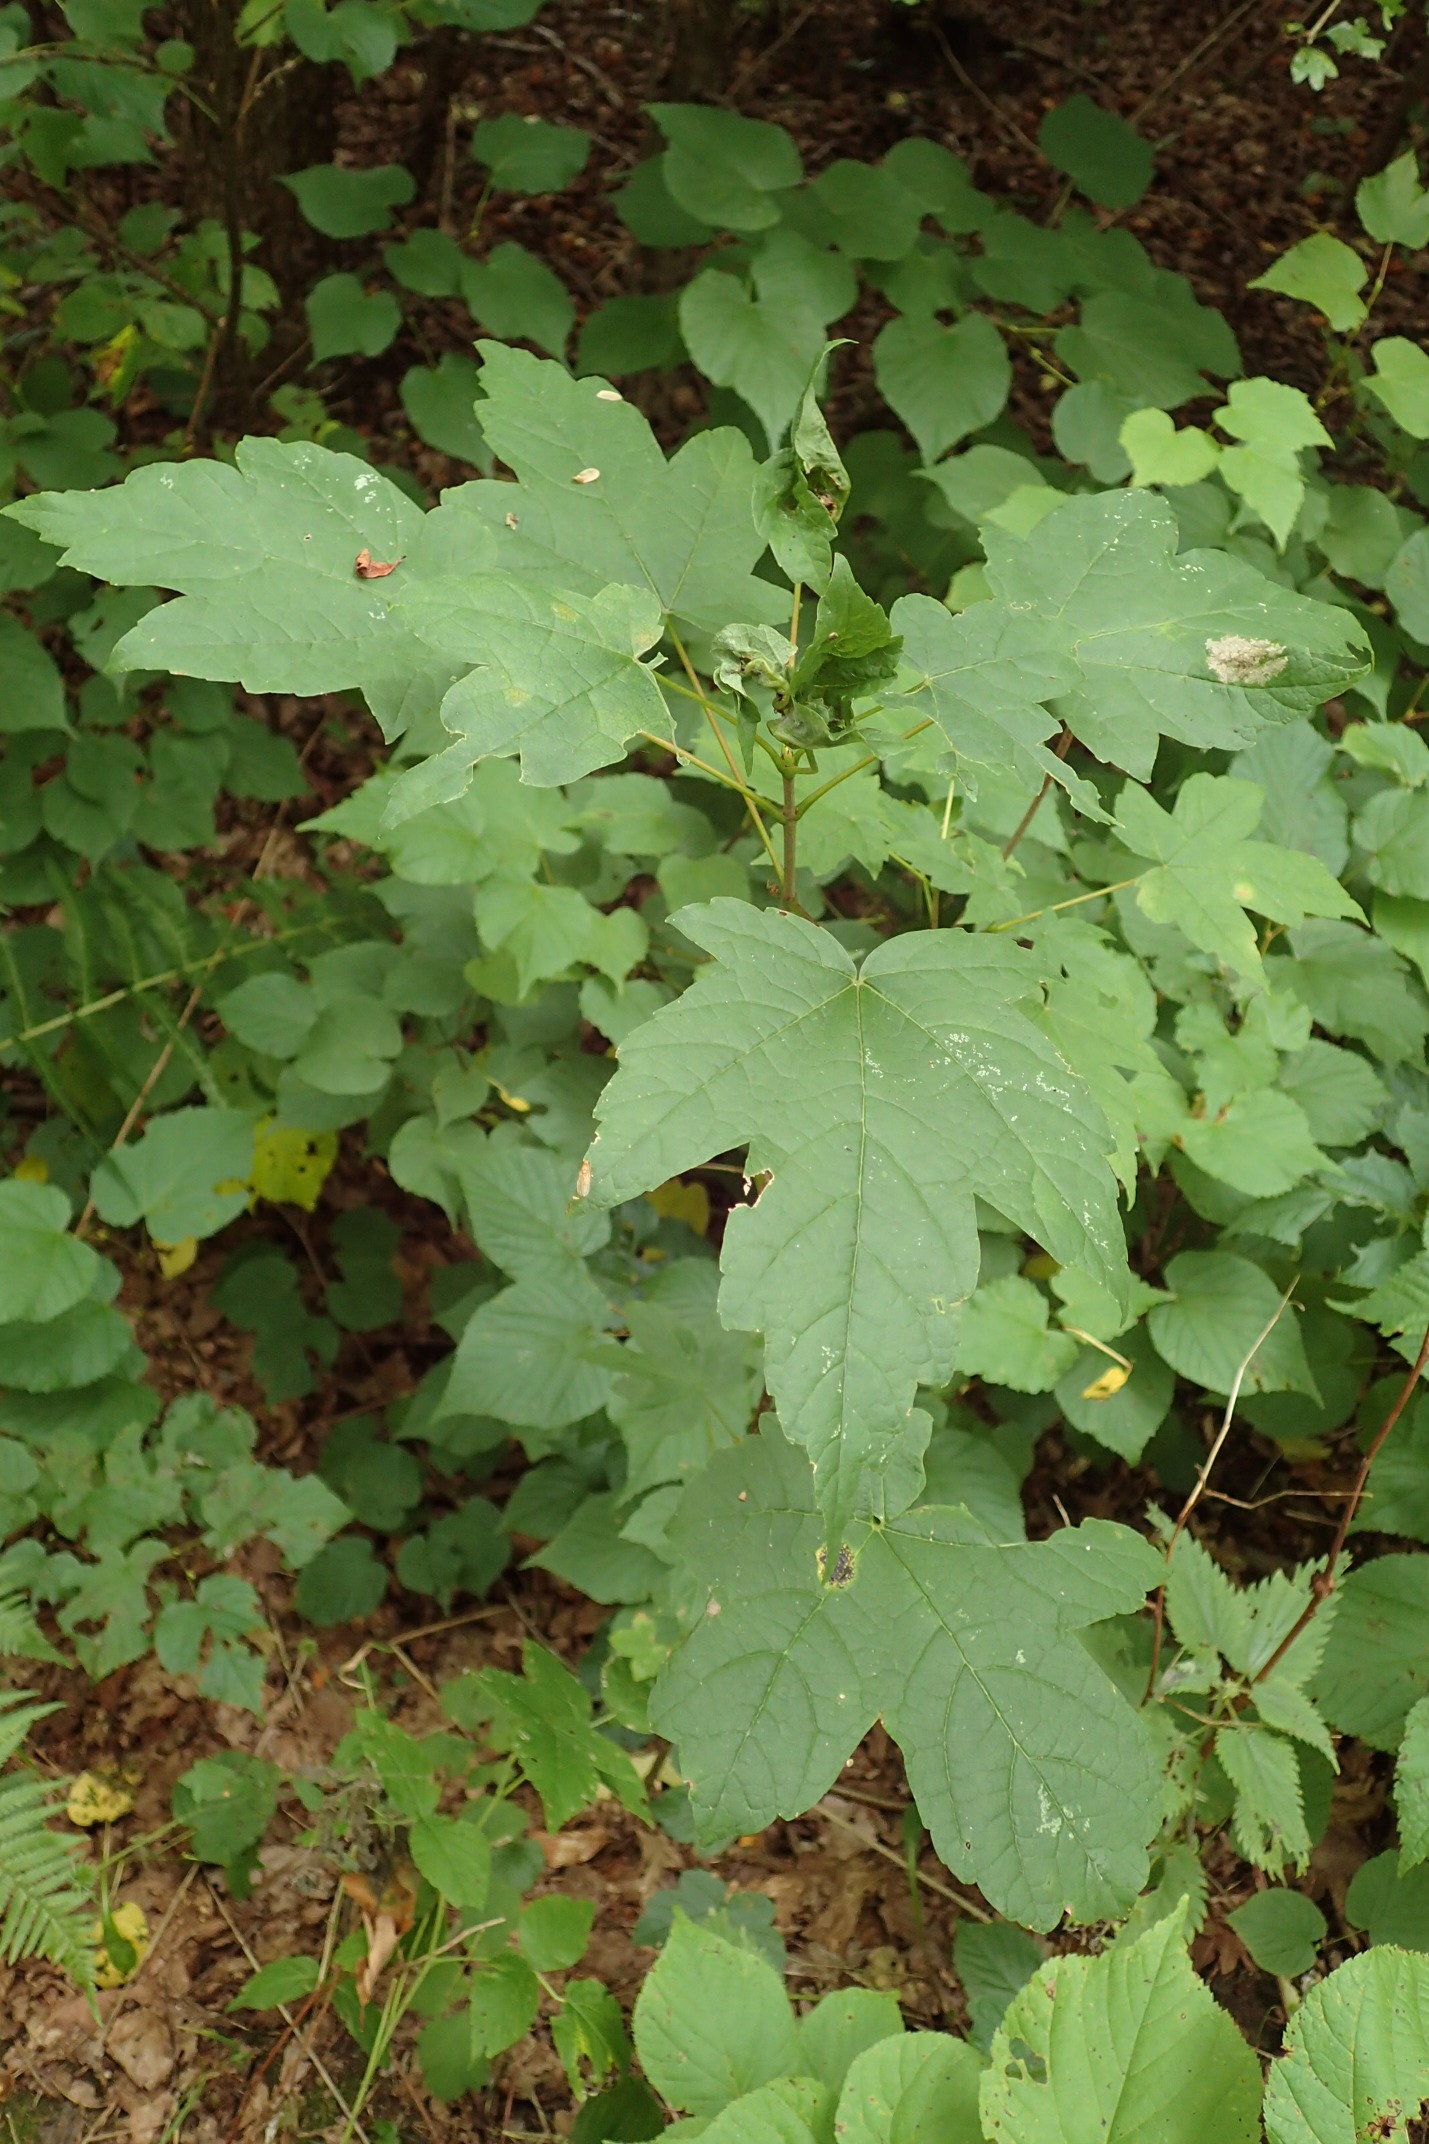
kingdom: Animalia
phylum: Arthropoda
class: Insecta
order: Diptera
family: Cecidomyiidae
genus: Dasineura
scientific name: Dasineura irregularis
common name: Ahornkrusegalmyg
